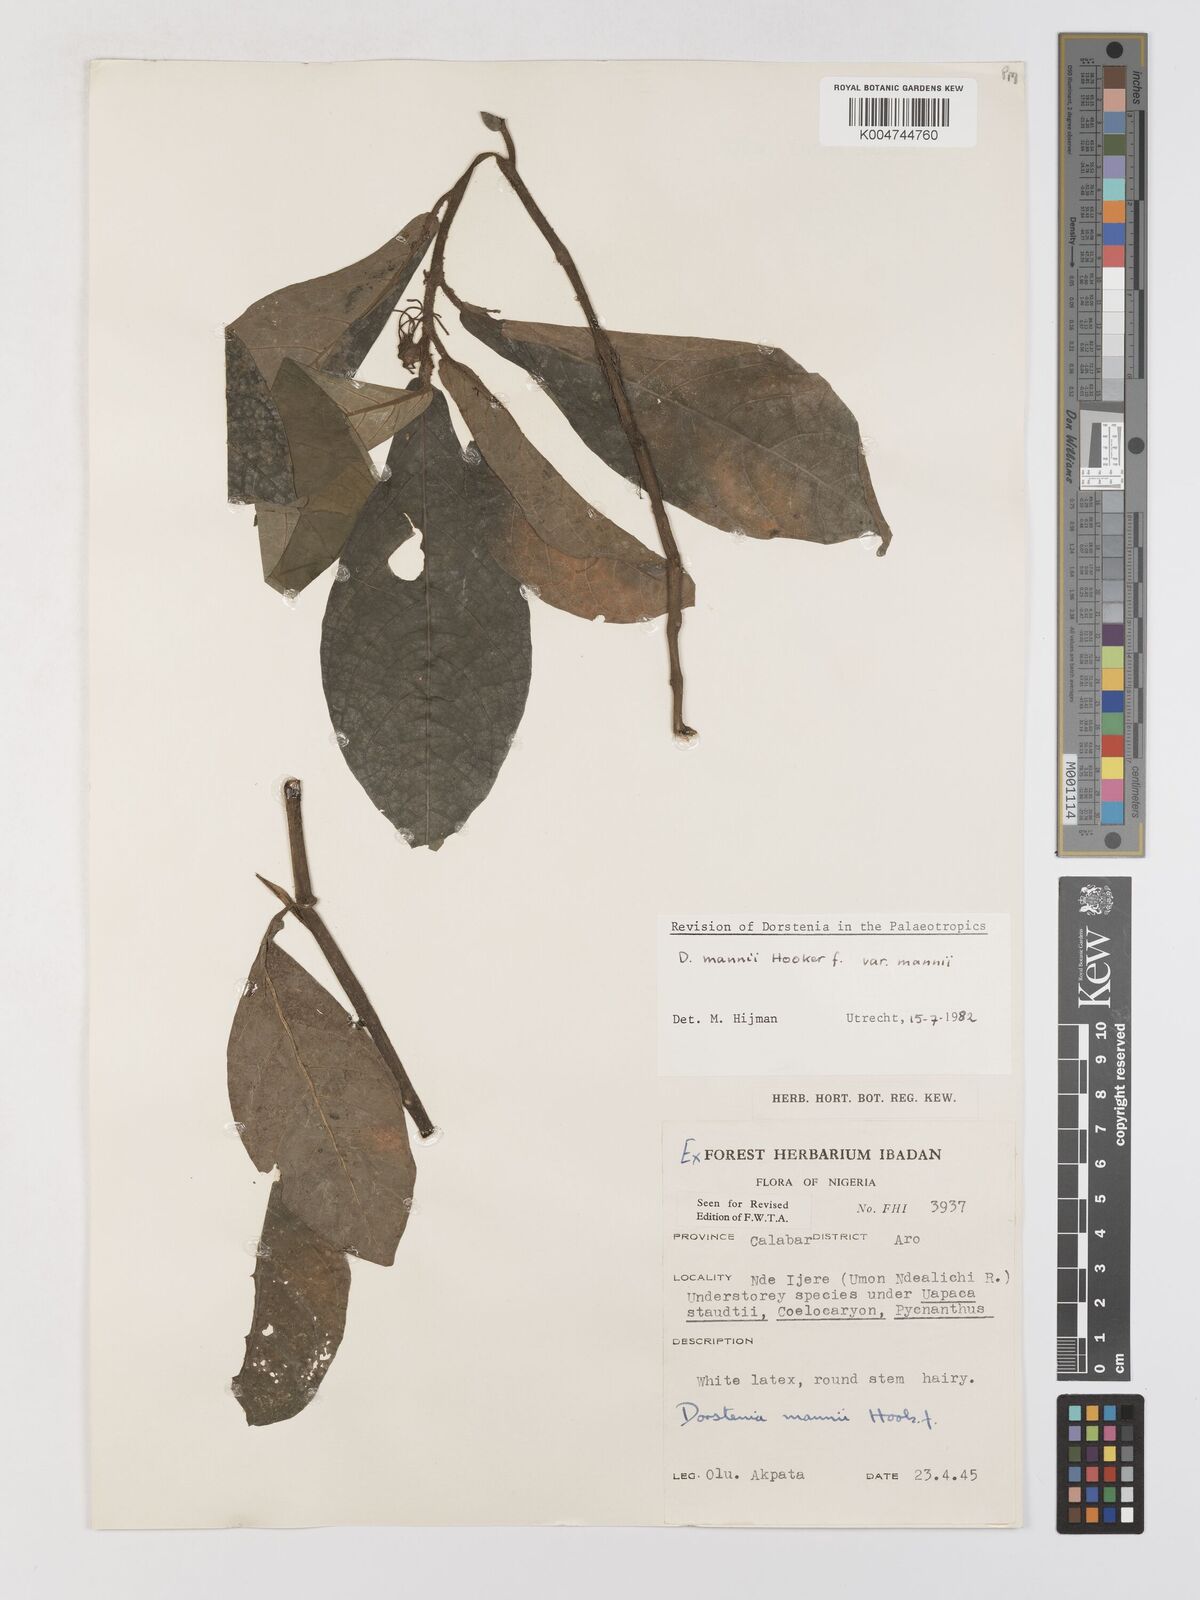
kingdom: Plantae
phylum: Tracheophyta
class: Magnoliopsida
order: Rosales
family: Moraceae
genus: Dorstenia
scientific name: Dorstenia mannii
